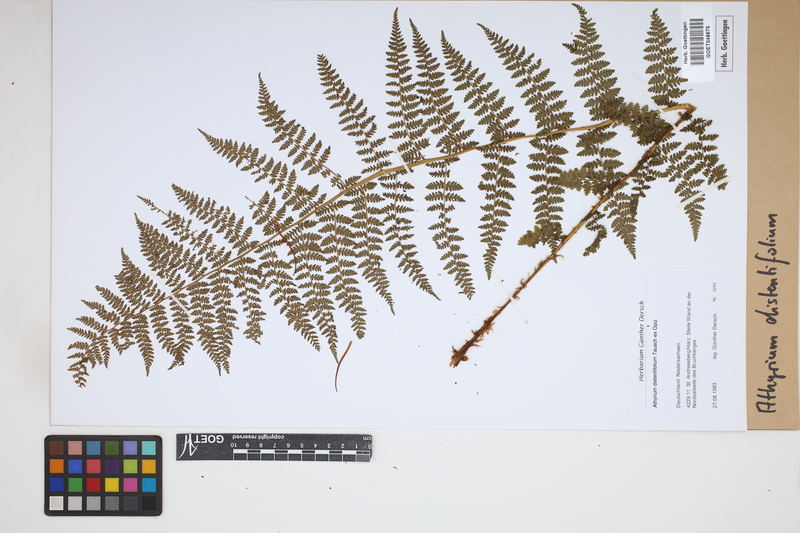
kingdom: Plantae
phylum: Tracheophyta
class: Polypodiopsida
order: Polypodiales
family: Athyriaceae
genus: Pseudathyrium
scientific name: Pseudathyrium alpestre
